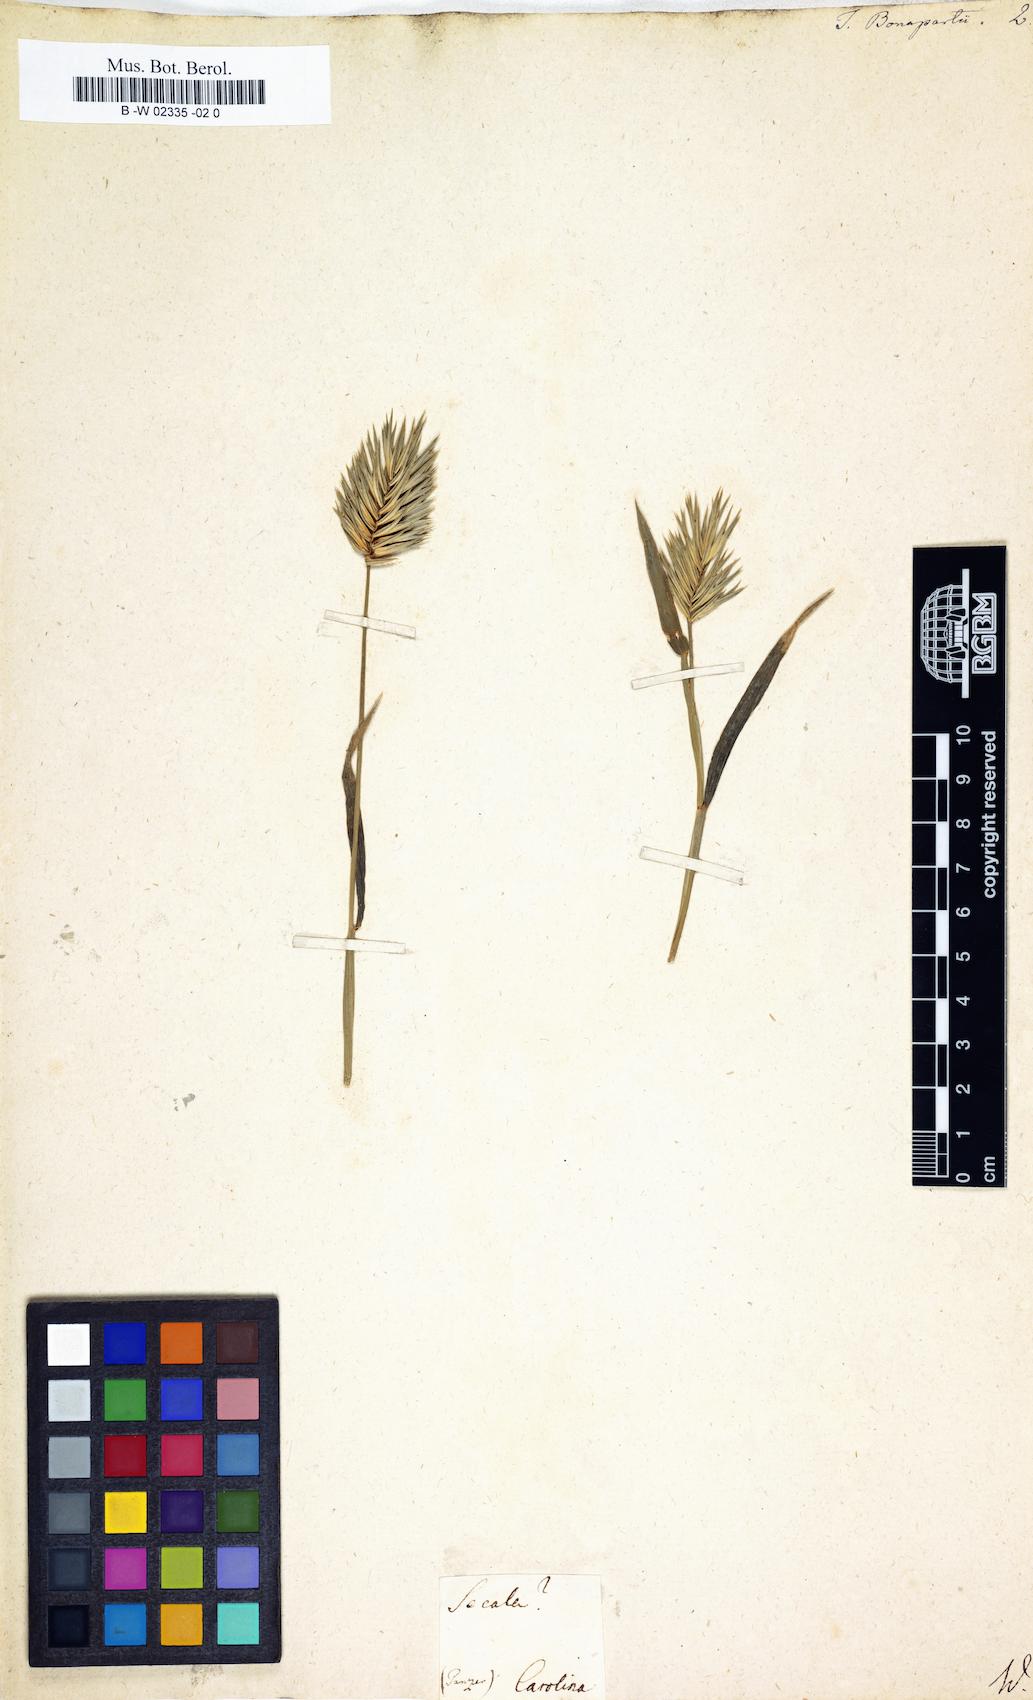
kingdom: Plantae
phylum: Tracheophyta
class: Liliopsida
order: Poales
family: Poaceae
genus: Eremopyrum
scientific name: Eremopyrum bonaepartis
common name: Tapertip false wheatgrass
